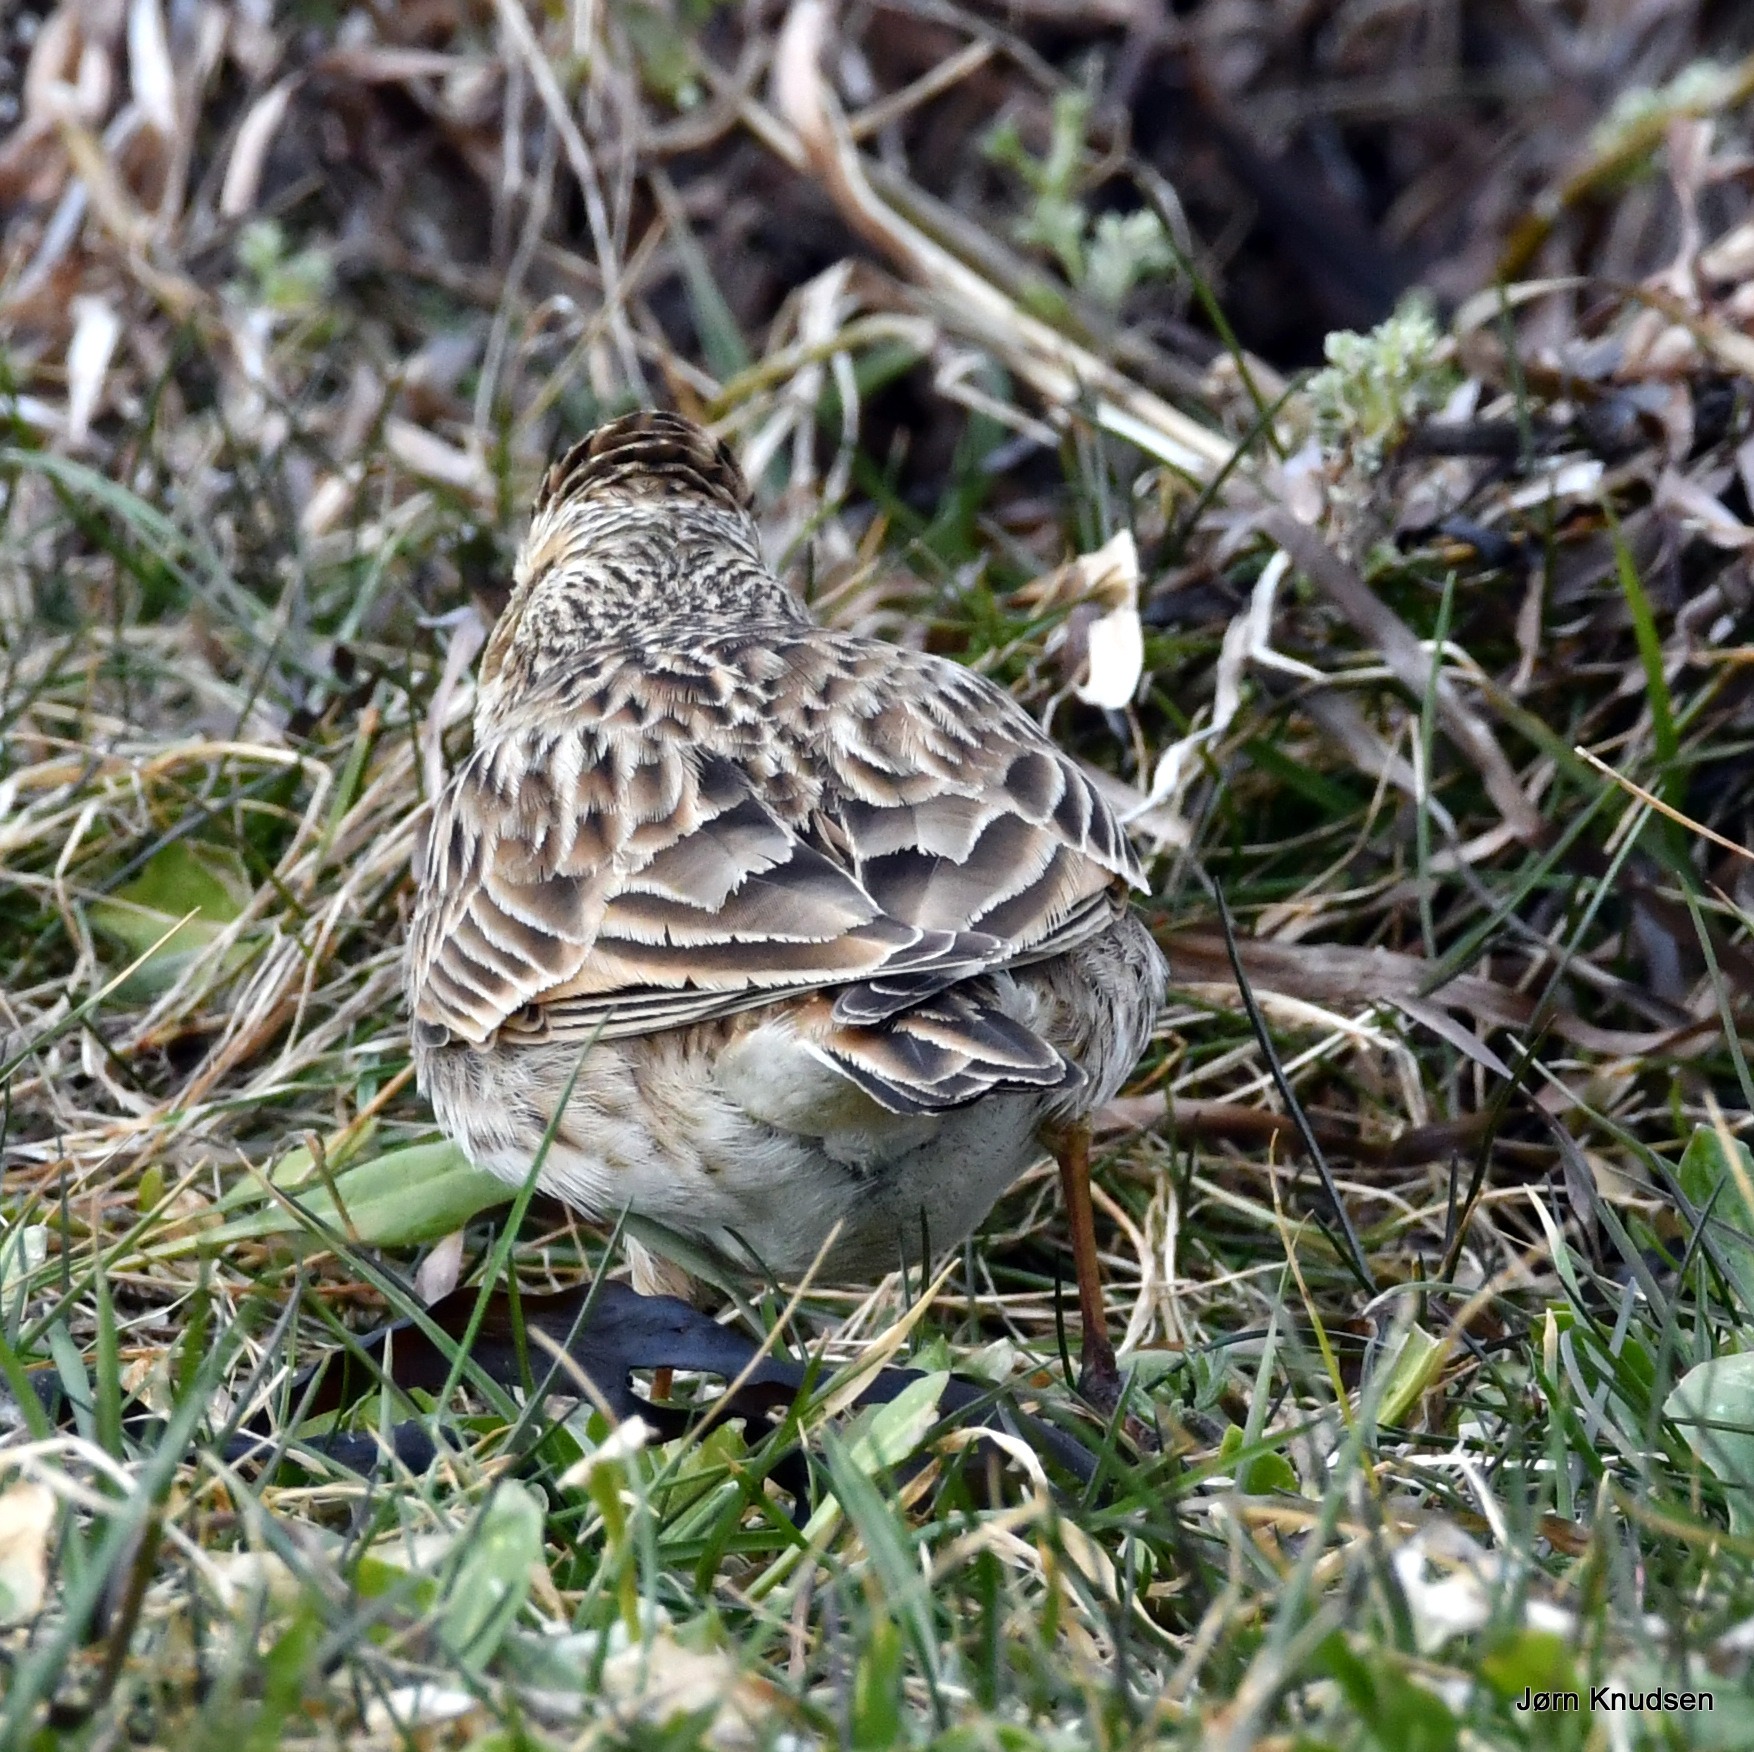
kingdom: Animalia
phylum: Chordata
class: Aves
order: Passeriformes
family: Alaudidae
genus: Alauda
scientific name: Alauda arvensis
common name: Sanglærke
